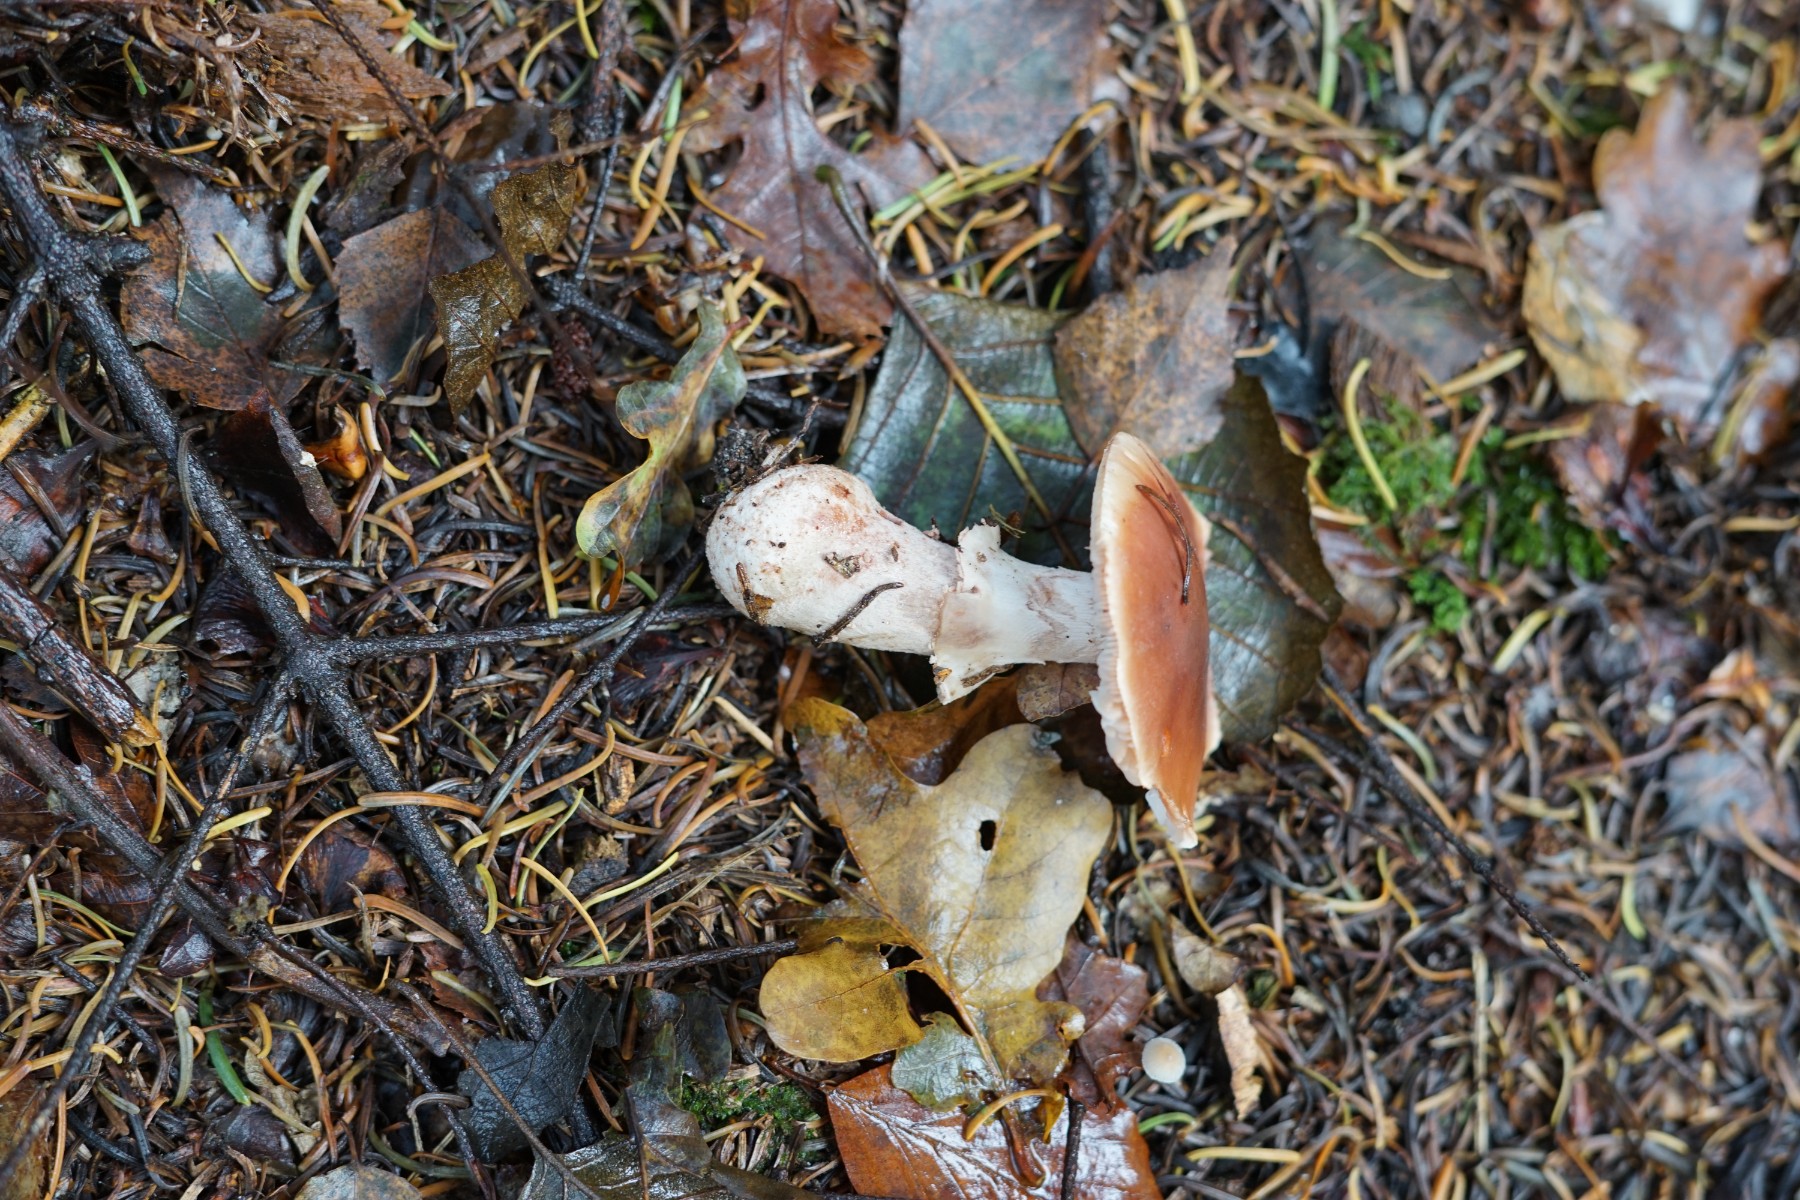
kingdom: Fungi
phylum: Basidiomycota
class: Agaricomycetes
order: Agaricales
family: Amanitaceae
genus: Amanita
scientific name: Amanita rubescens
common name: rødmende fluesvamp
